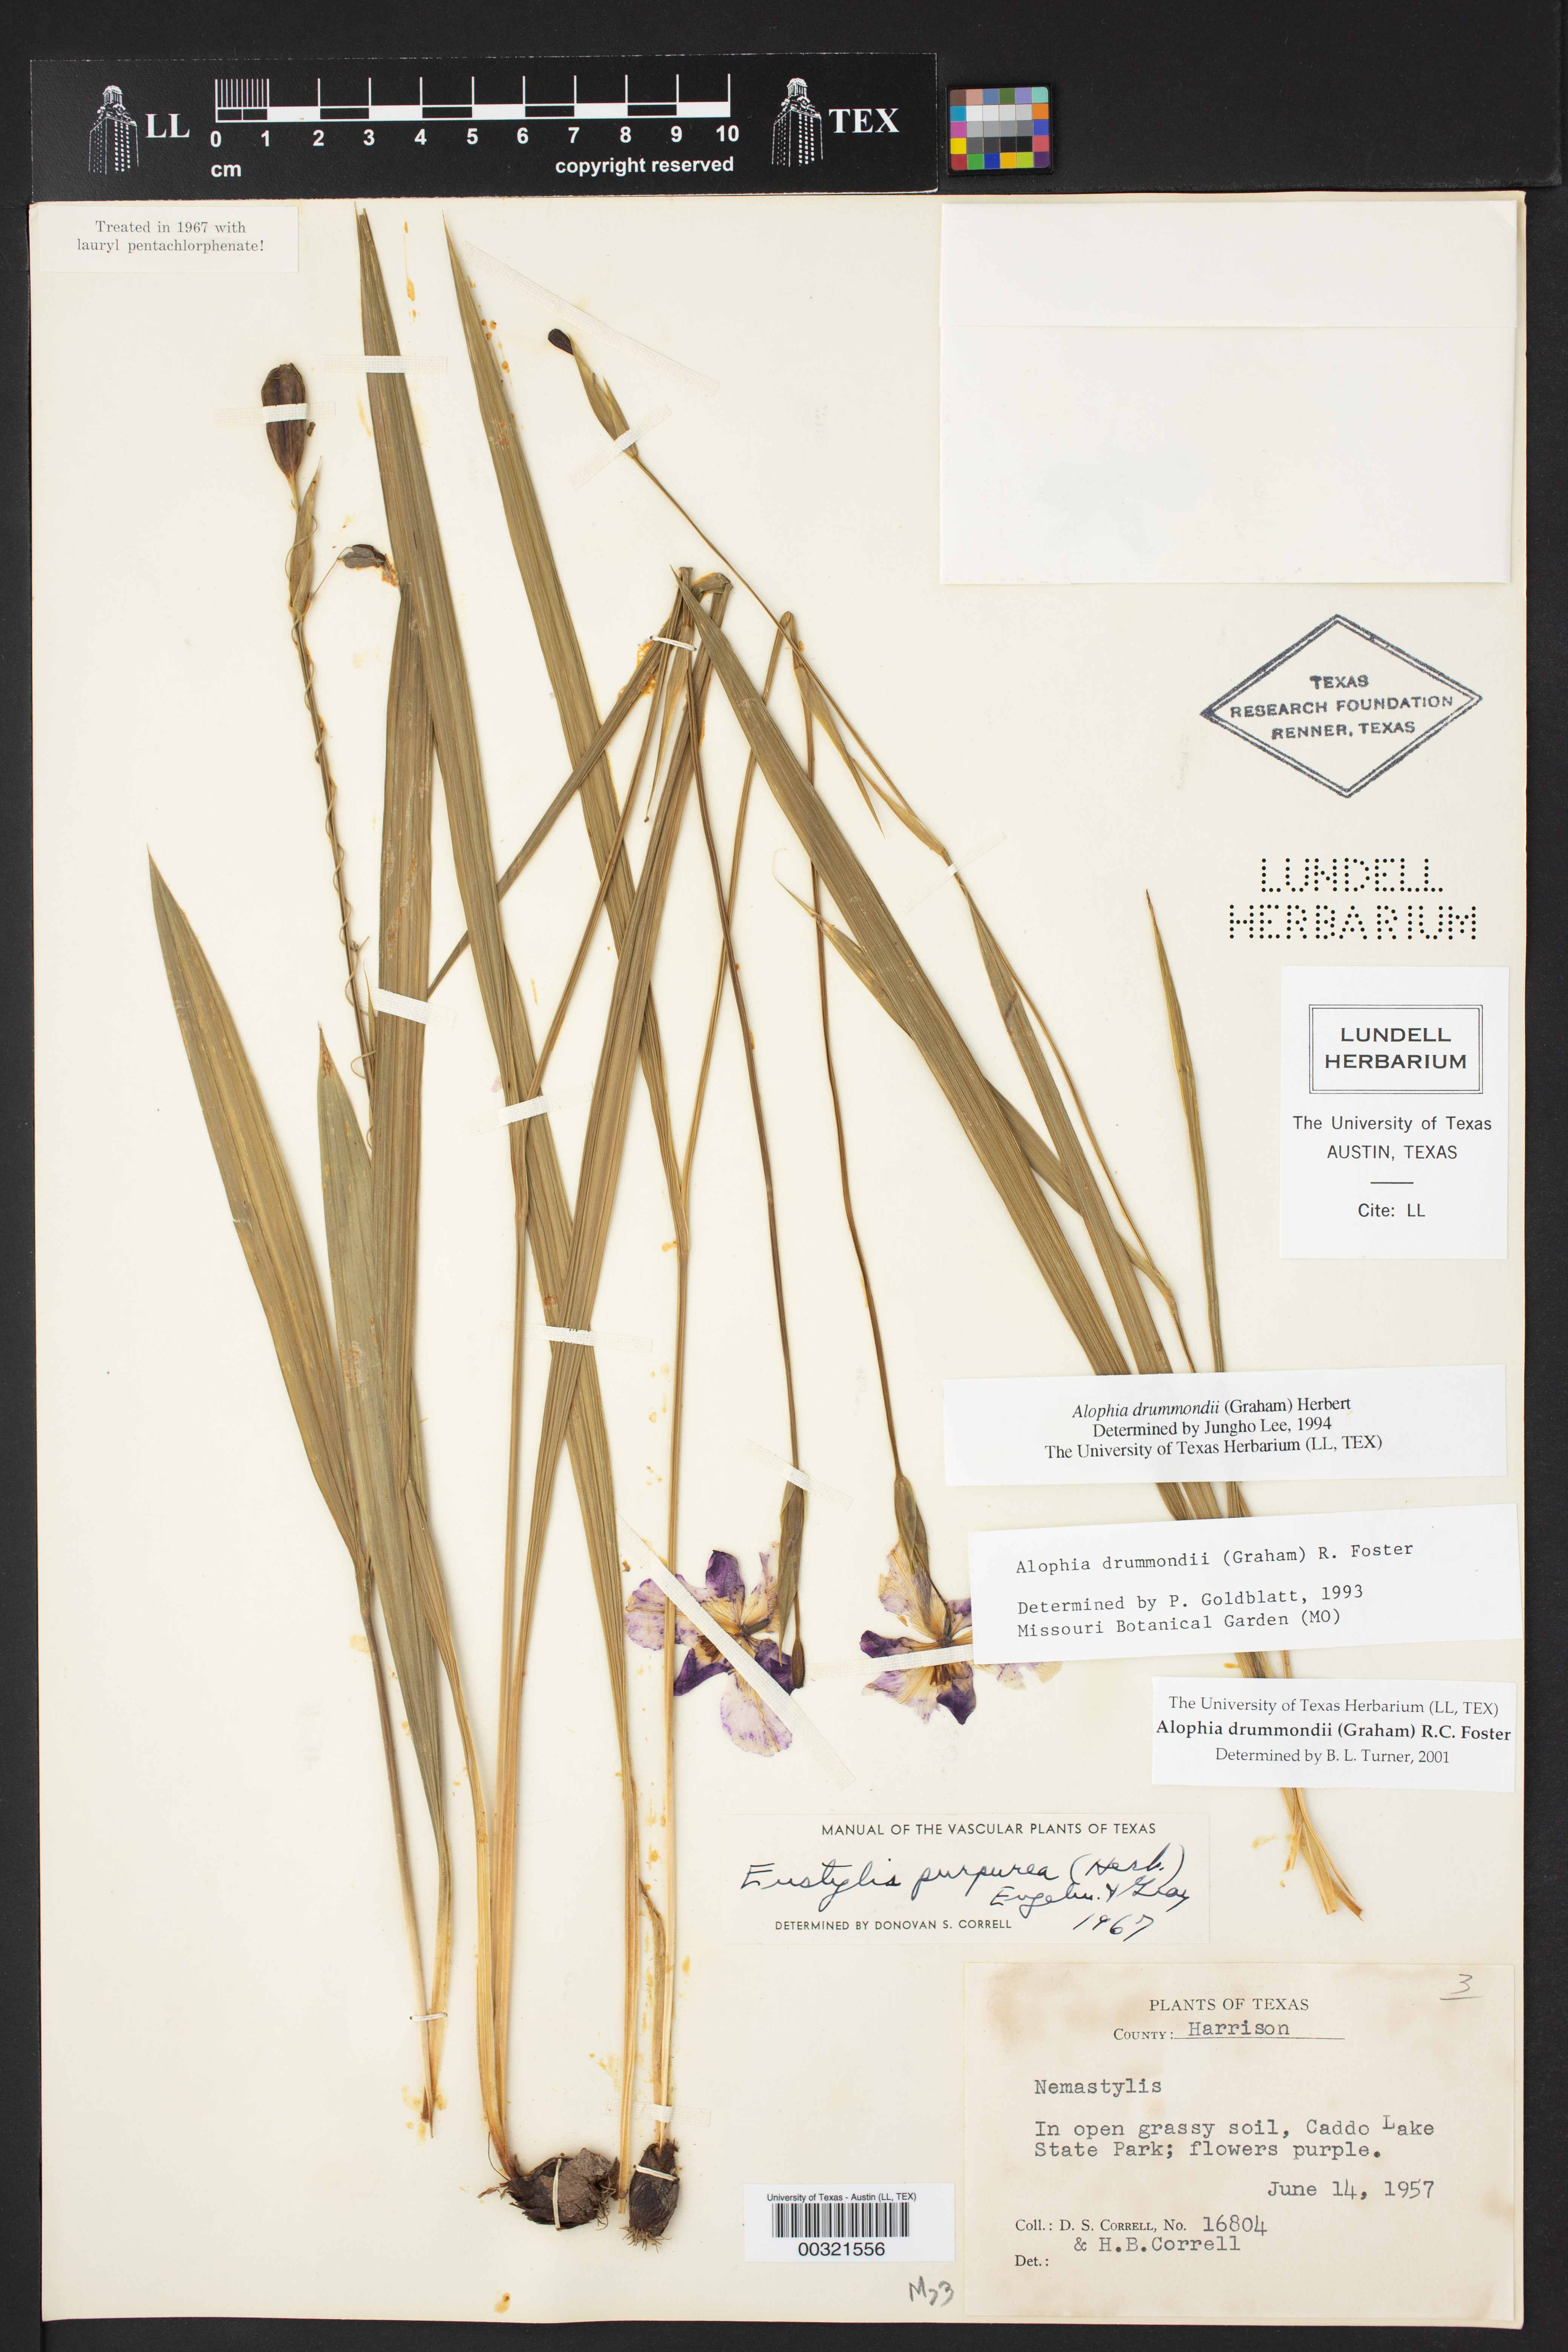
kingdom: Plantae
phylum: Tracheophyta
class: Liliopsida
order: Asparagales
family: Iridaceae
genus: Alophia
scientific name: Alophia drummondii
